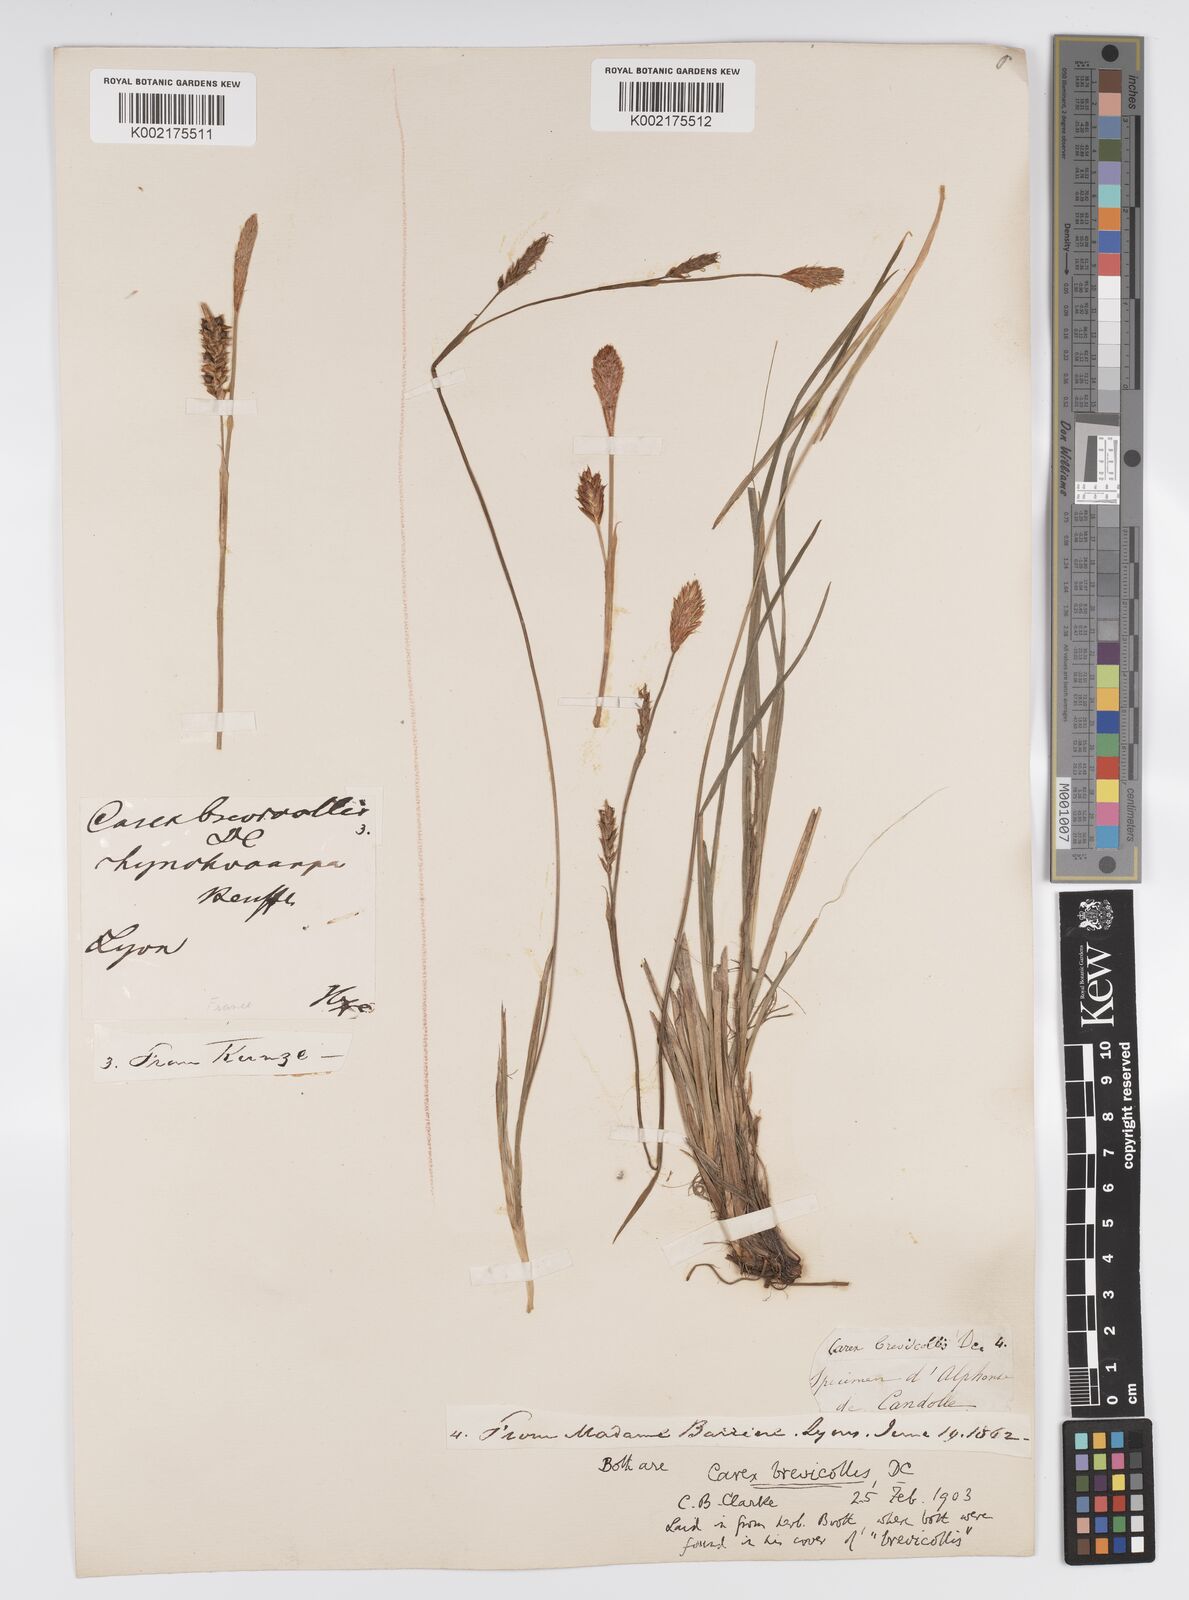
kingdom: Plantae
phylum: Tracheophyta
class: Liliopsida
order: Poales
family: Cyperaceae
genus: Carex
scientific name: Carex brevicollis
